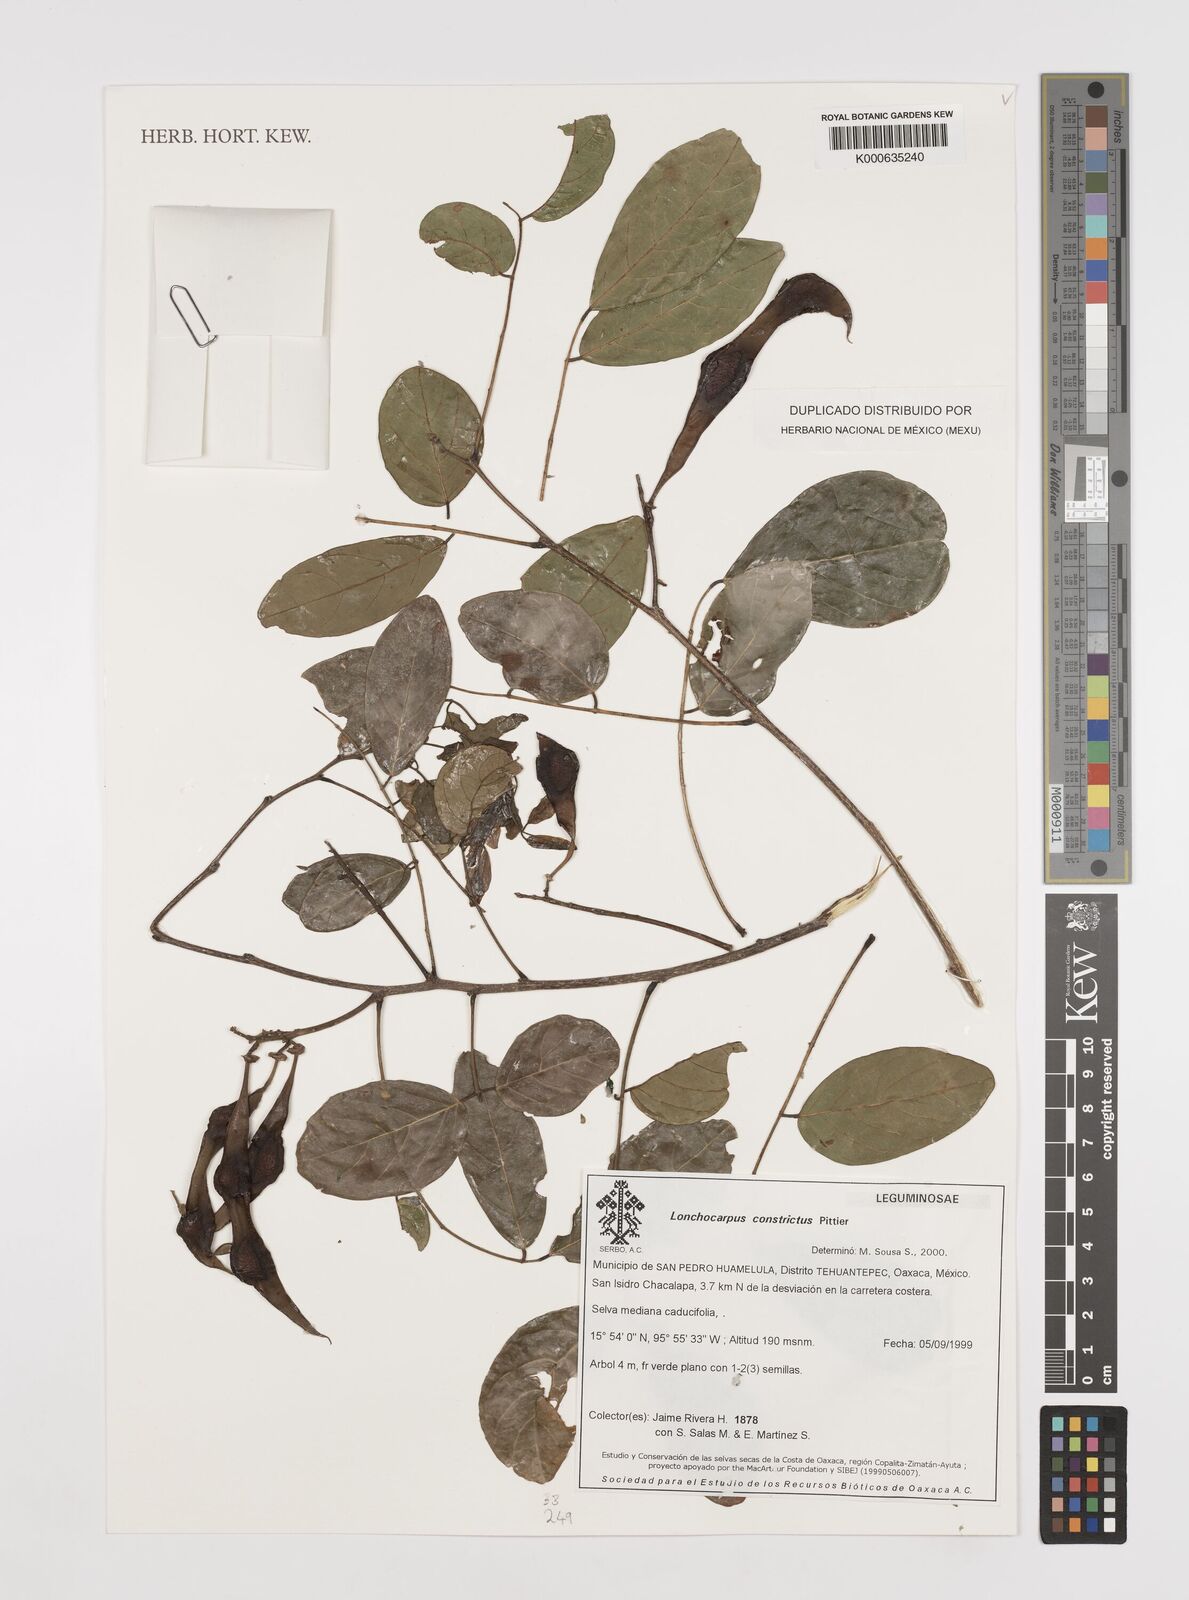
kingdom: Plantae
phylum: Tracheophyta
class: Magnoliopsida
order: Fabales
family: Fabaceae
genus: Lonchocarpus
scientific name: Lonchocarpus constrictus
